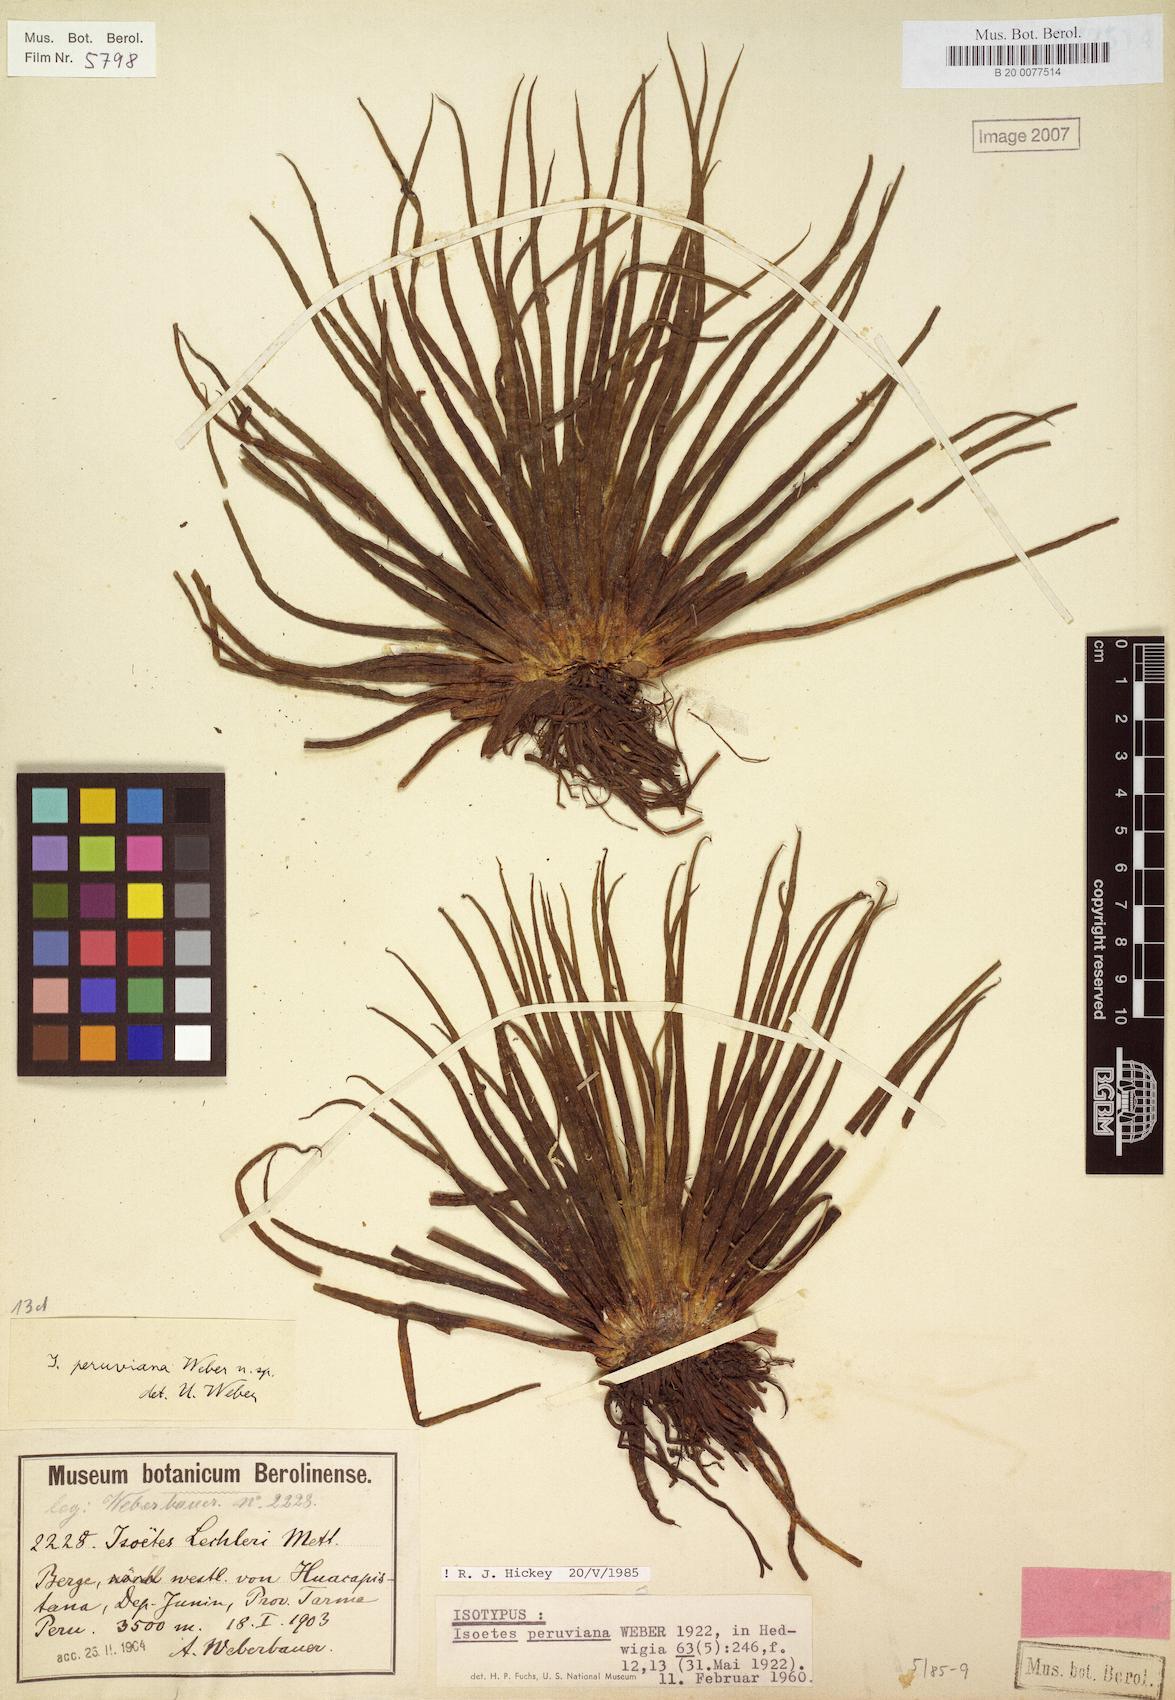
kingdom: Plantae
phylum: Tracheophyta
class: Lycopodiopsida
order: Isoetales
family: Isoetaceae
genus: Isoetes
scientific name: Isoetes lechleri
